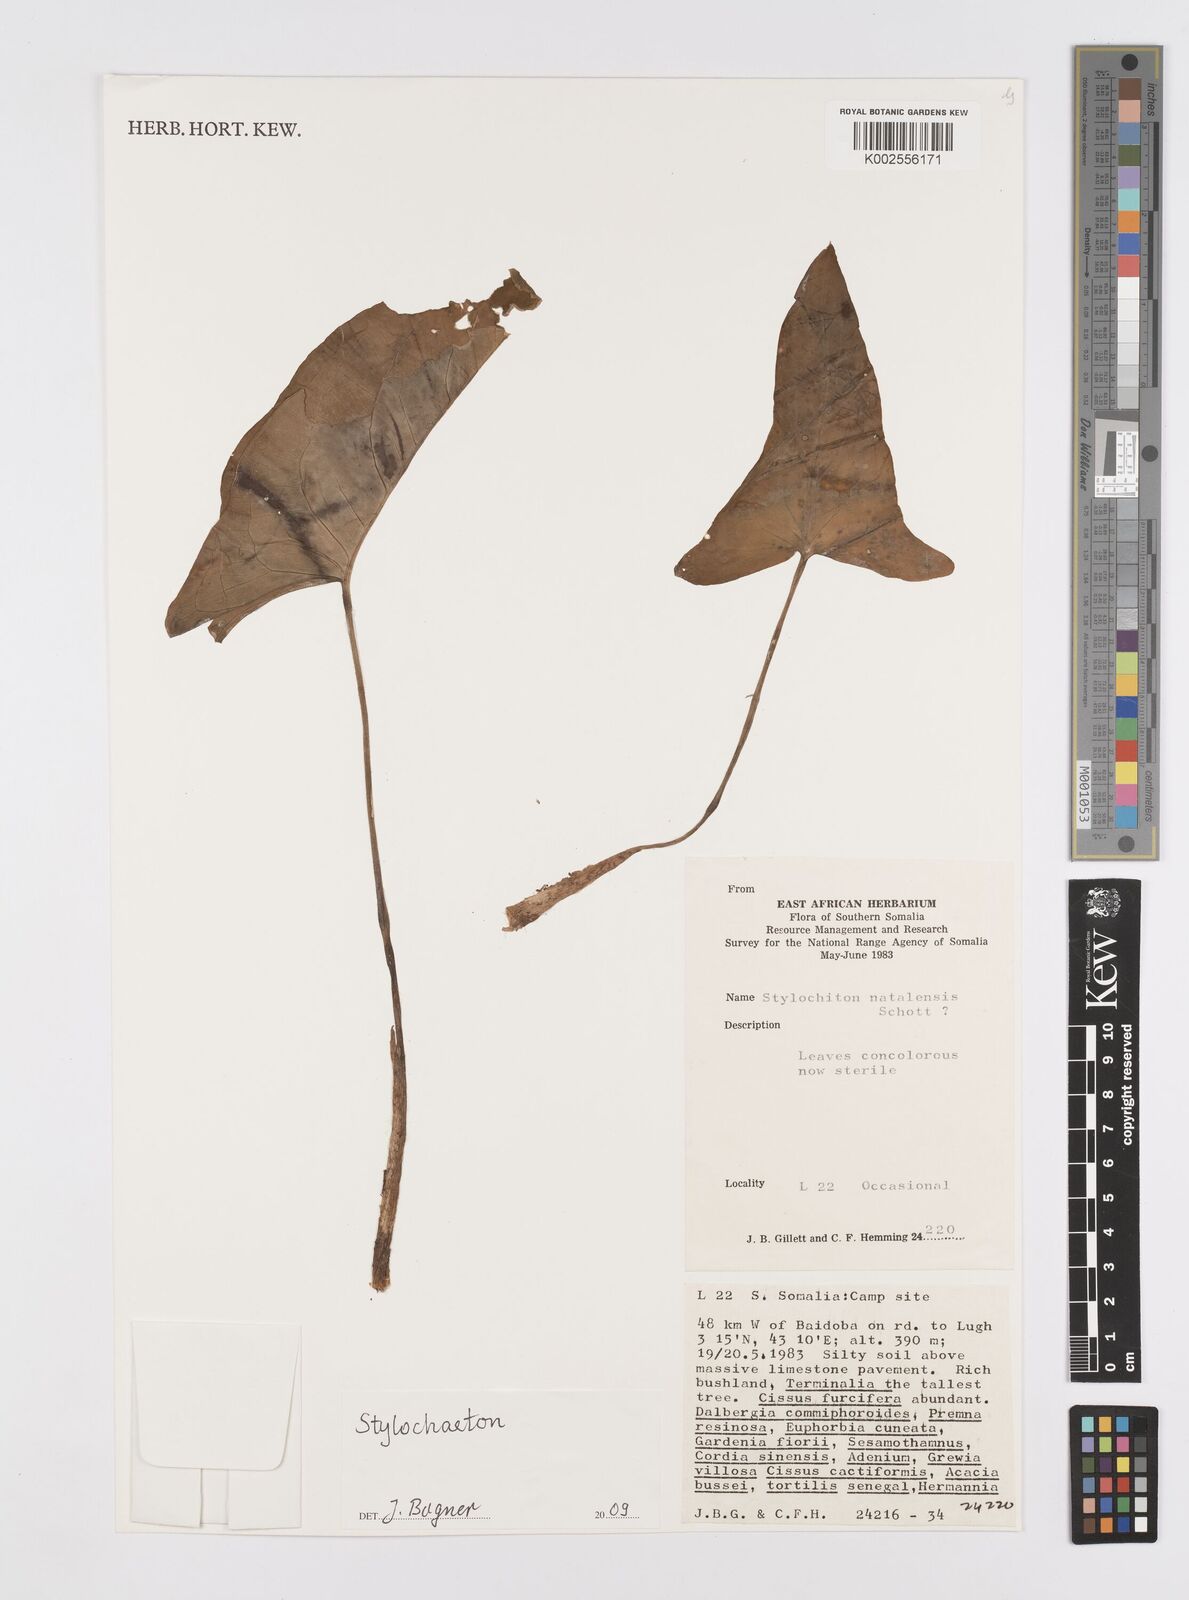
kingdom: Plantae
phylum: Tracheophyta
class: Liliopsida
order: Alismatales
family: Araceae
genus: Stylochaeton
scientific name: Stylochaeton natalense
